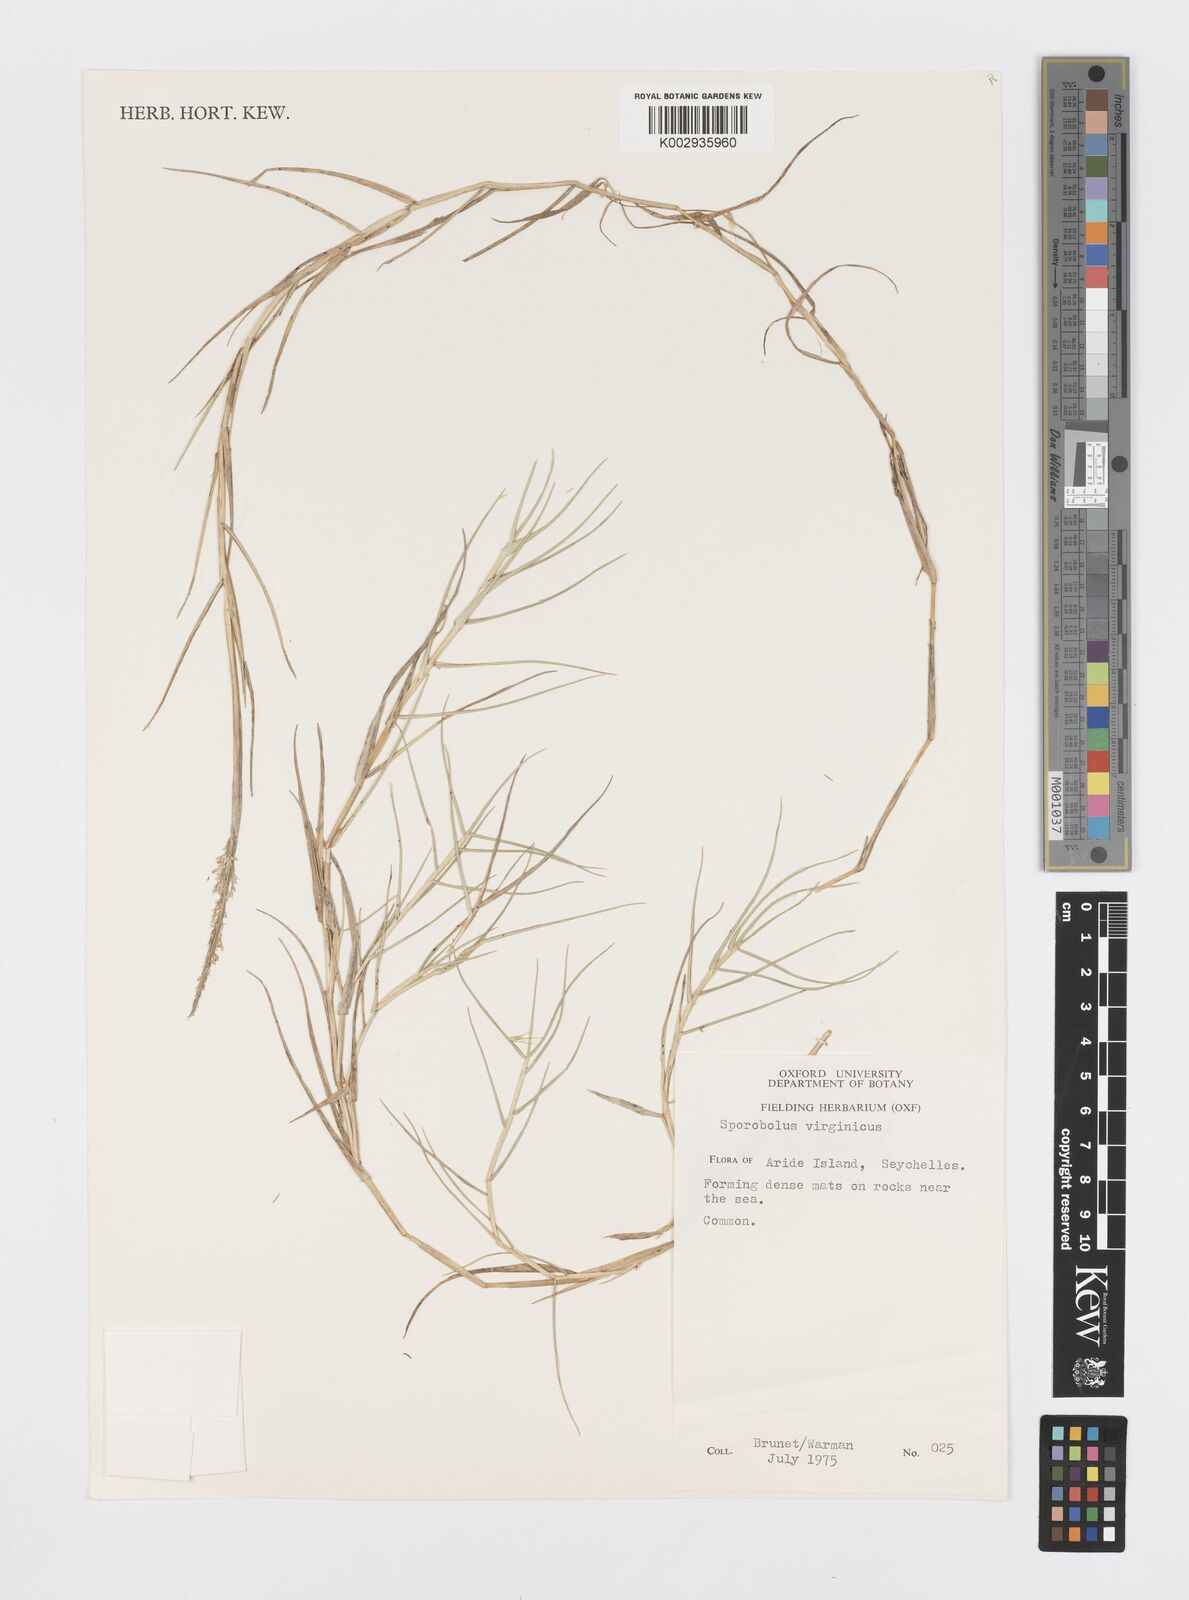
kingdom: Plantae
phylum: Tracheophyta
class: Liliopsida
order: Poales
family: Poaceae
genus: Sporobolus
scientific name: Sporobolus virginicus
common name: Beach dropseed
